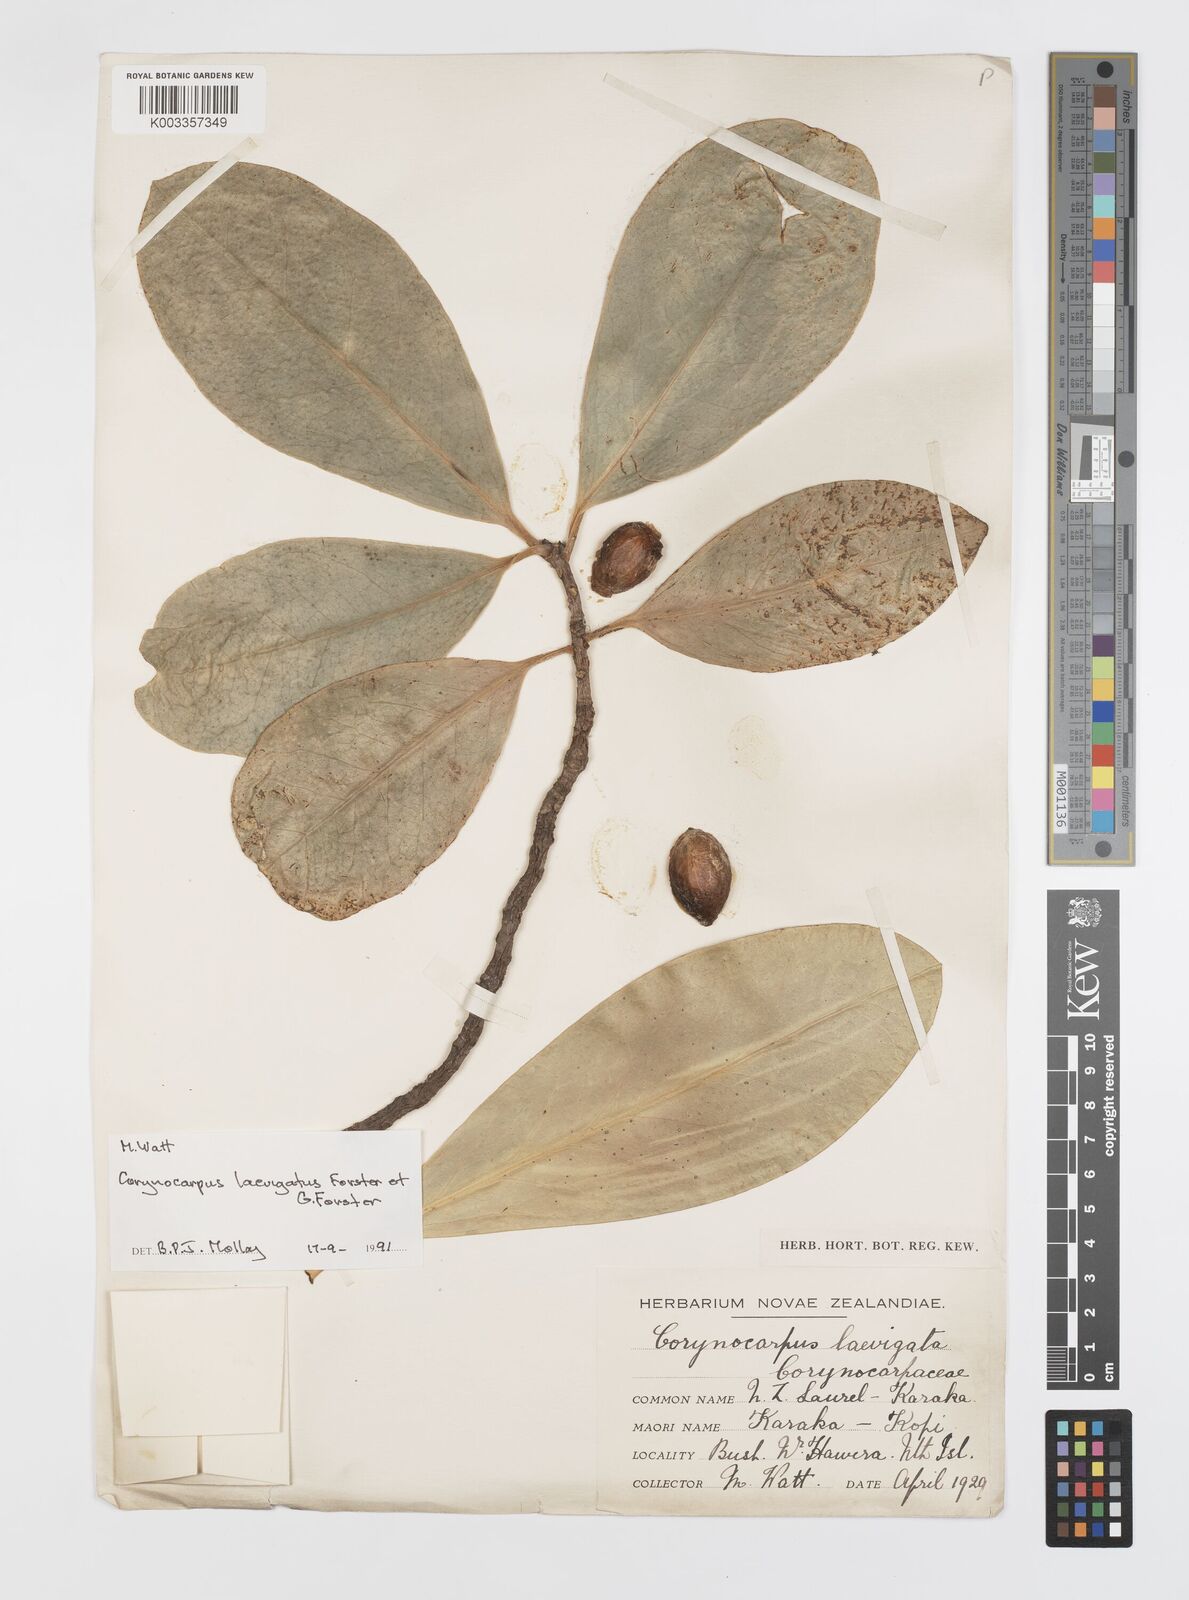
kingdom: Plantae
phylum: Tracheophyta
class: Magnoliopsida
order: Cucurbitales
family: Corynocarpaceae
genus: Corynocarpus
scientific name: Corynocarpus laevigatus
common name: New zealand laurel
